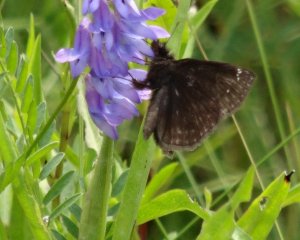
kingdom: Animalia
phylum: Arthropoda
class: Insecta
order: Lepidoptera
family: Hesperiidae
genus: Gesta
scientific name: Gesta
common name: Columbine Duskywing
